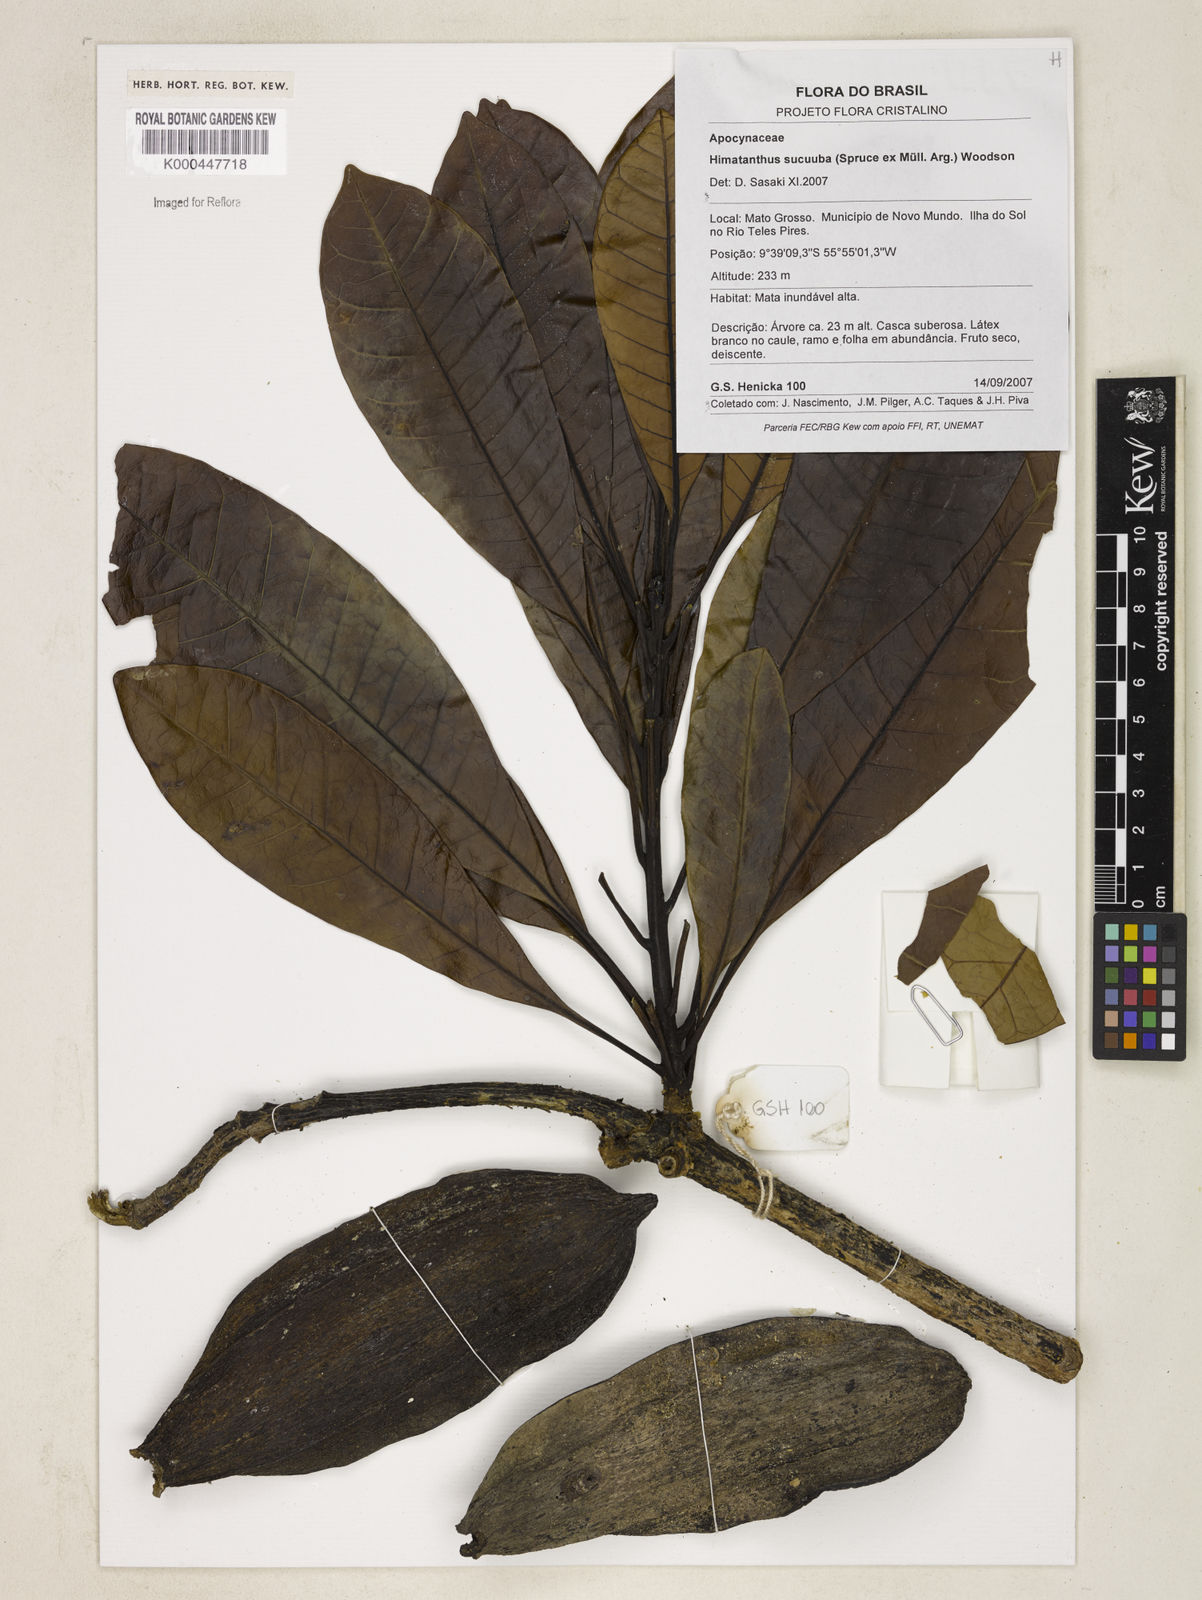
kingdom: Plantae
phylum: Tracheophyta
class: Magnoliopsida
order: Gentianales
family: Apocynaceae
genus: Himatanthus
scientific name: Himatanthus
